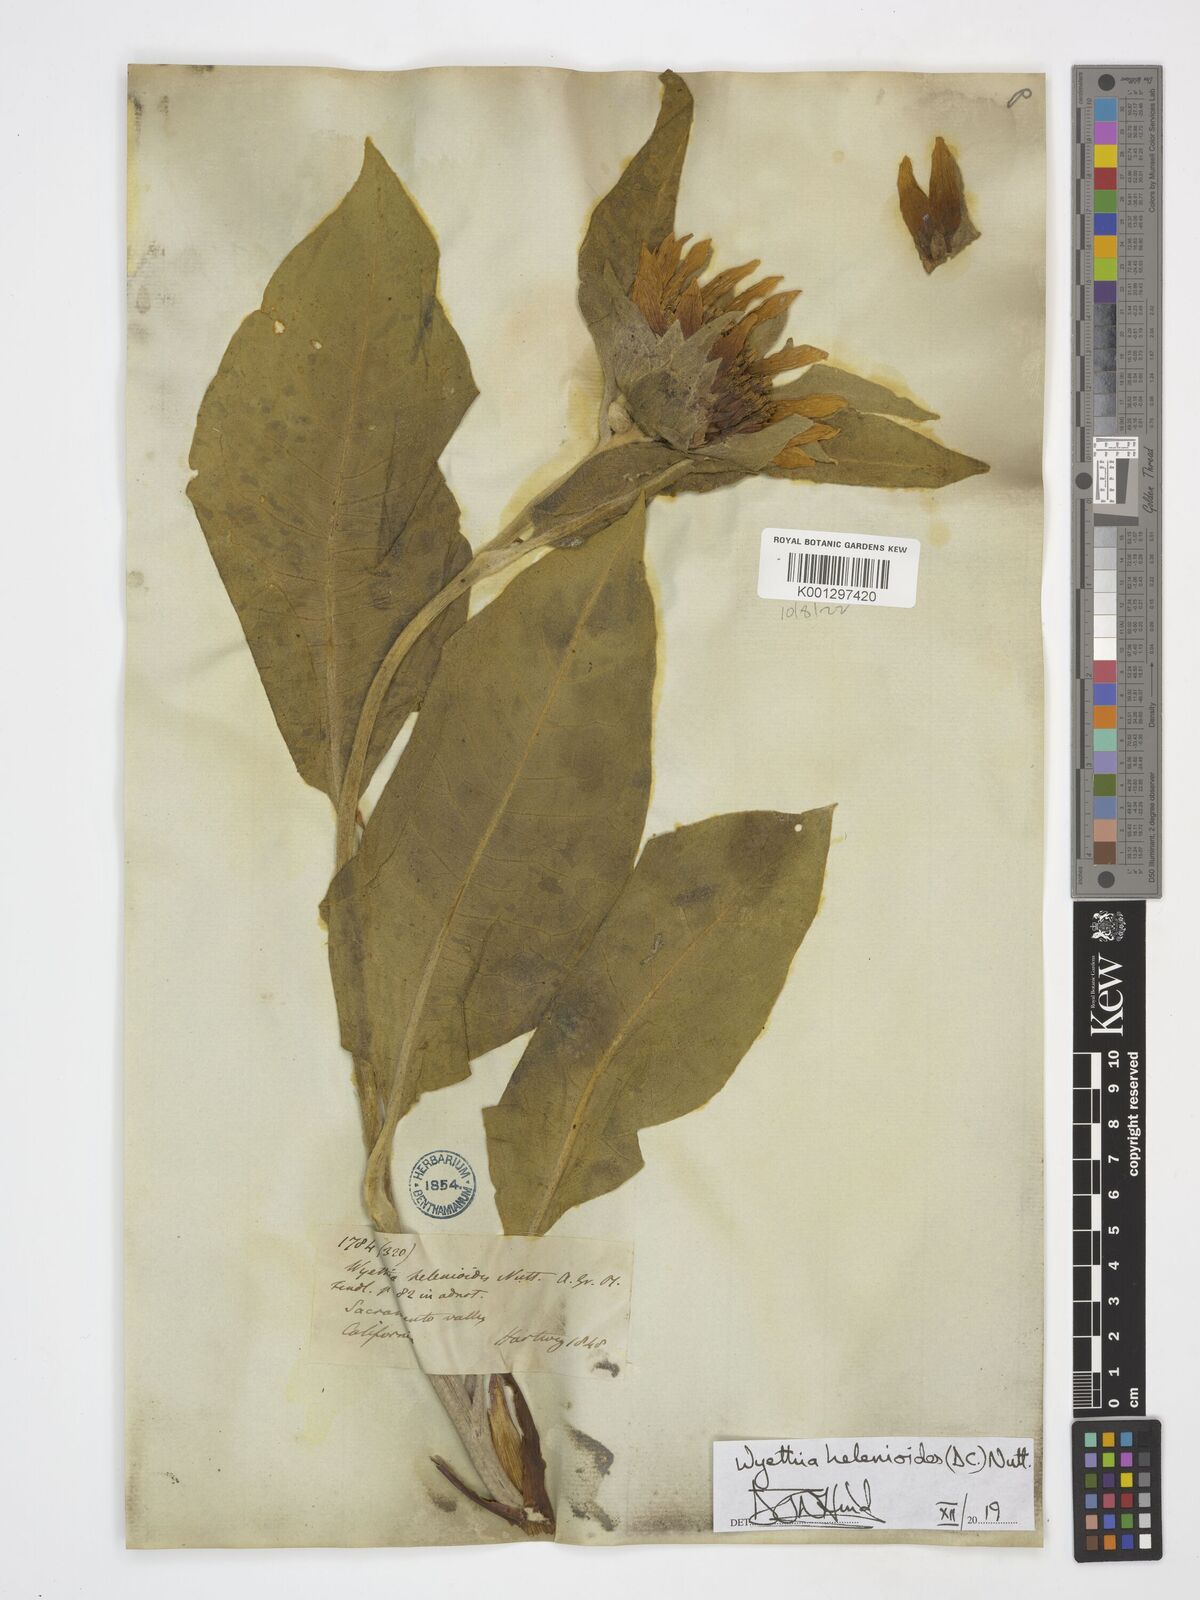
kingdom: Plantae
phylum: Tracheophyta
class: Magnoliopsida
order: Asterales
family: Asteraceae
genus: Wyethia
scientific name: Wyethia helenioides
